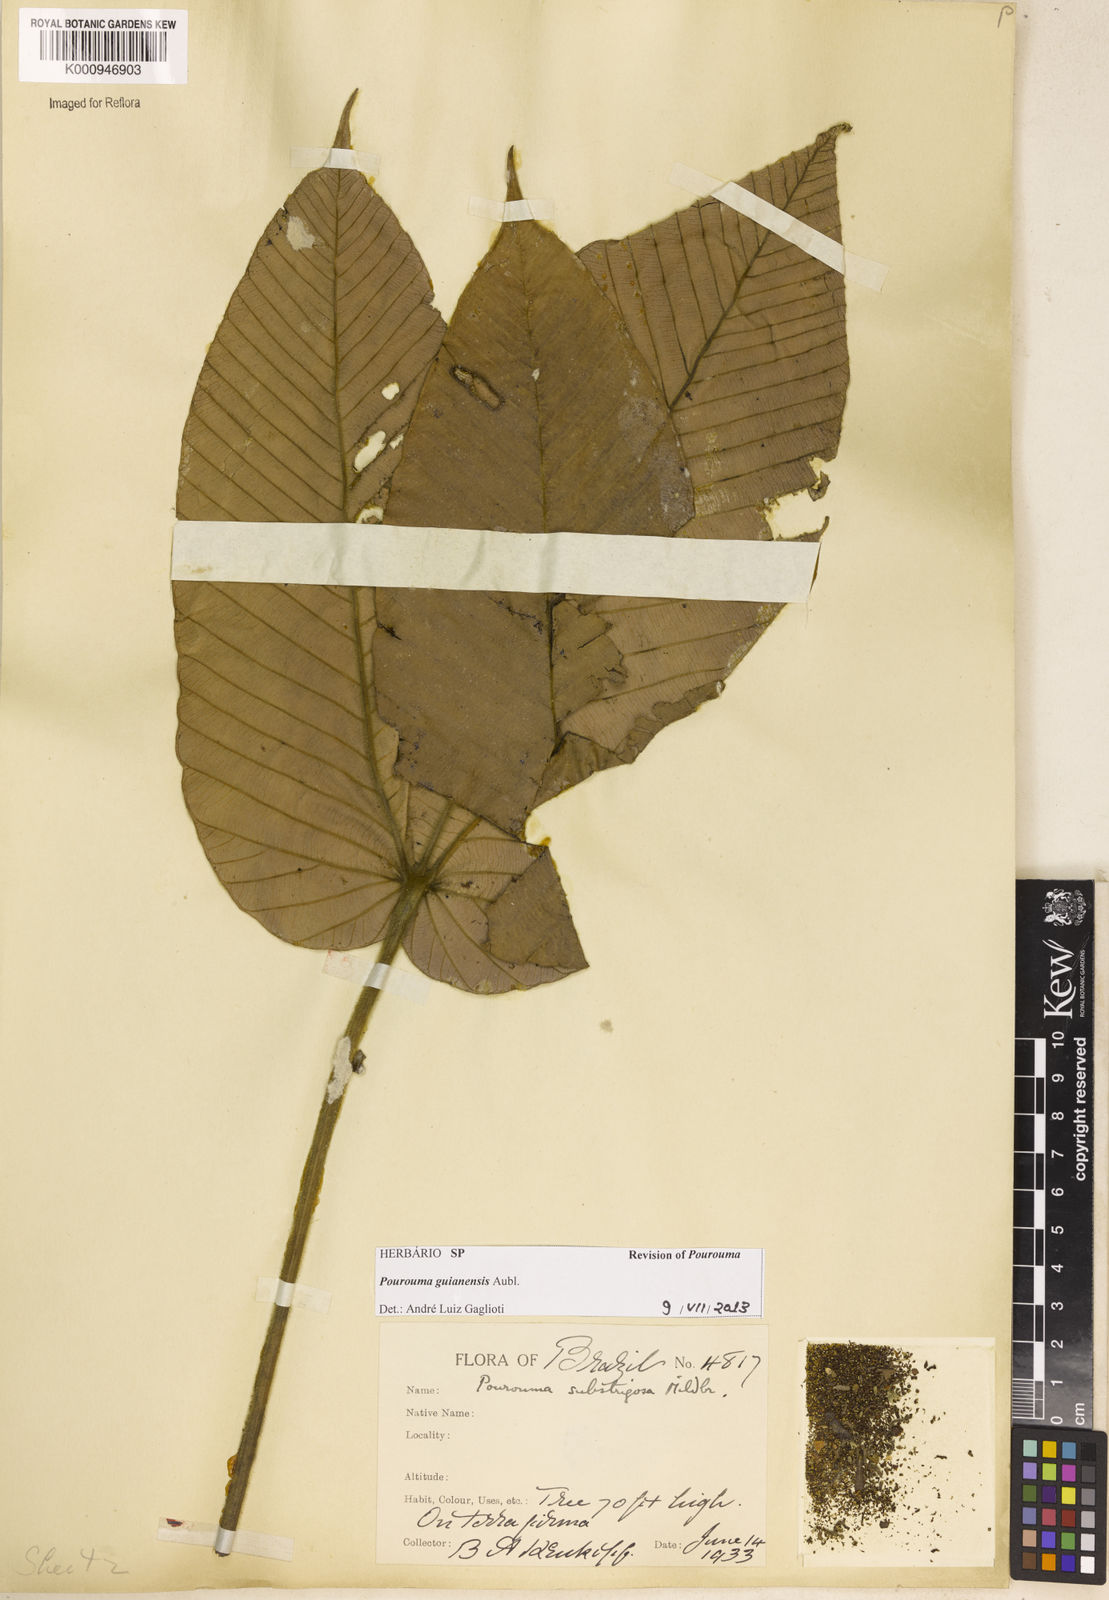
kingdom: Plantae
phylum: Tracheophyta
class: Magnoliopsida
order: Rosales
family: Urticaceae
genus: Pourouma
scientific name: Pourouma guianensis
